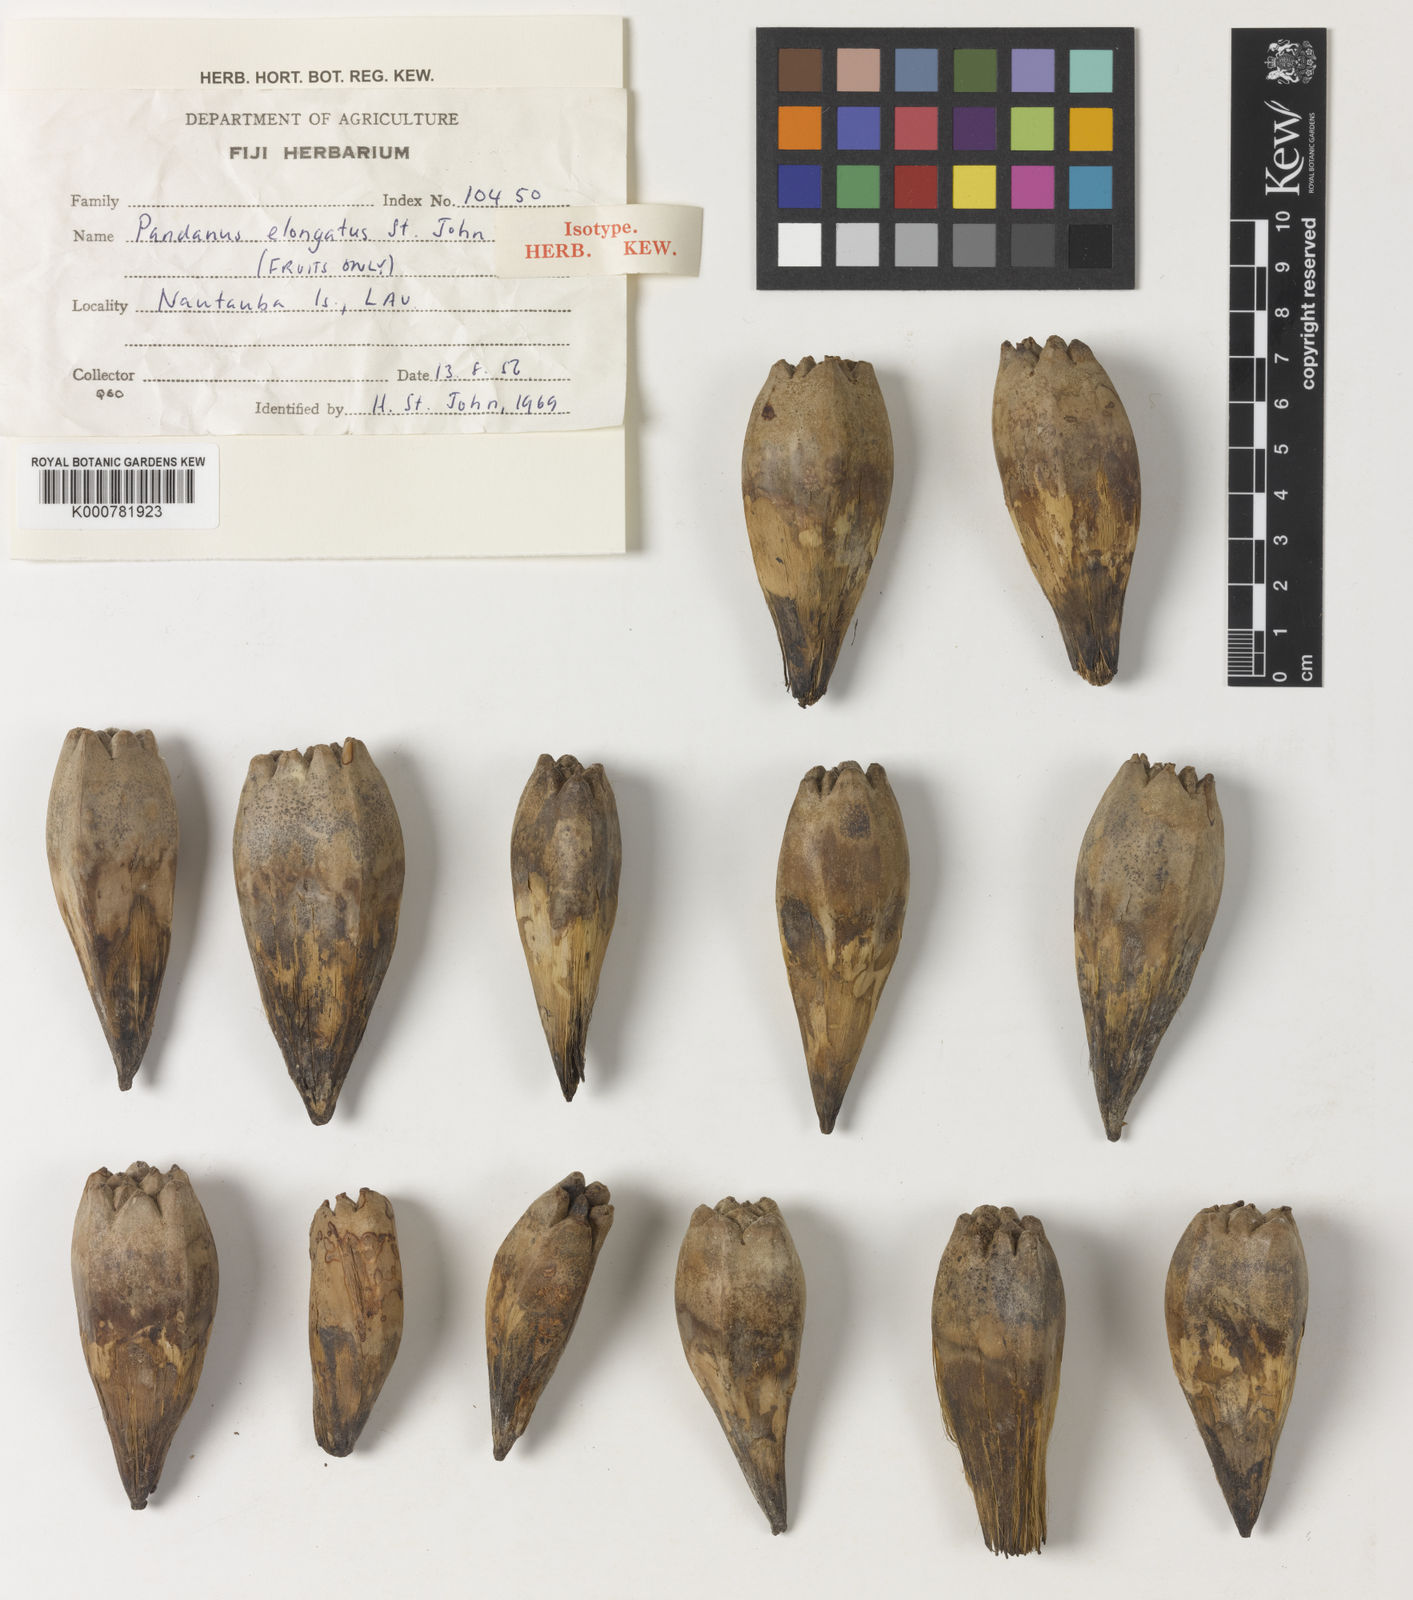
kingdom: Plantae
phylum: Tracheophyta
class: Liliopsida
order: Pandanales
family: Pandanaceae
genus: Pandanus
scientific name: Pandanus alveatus
